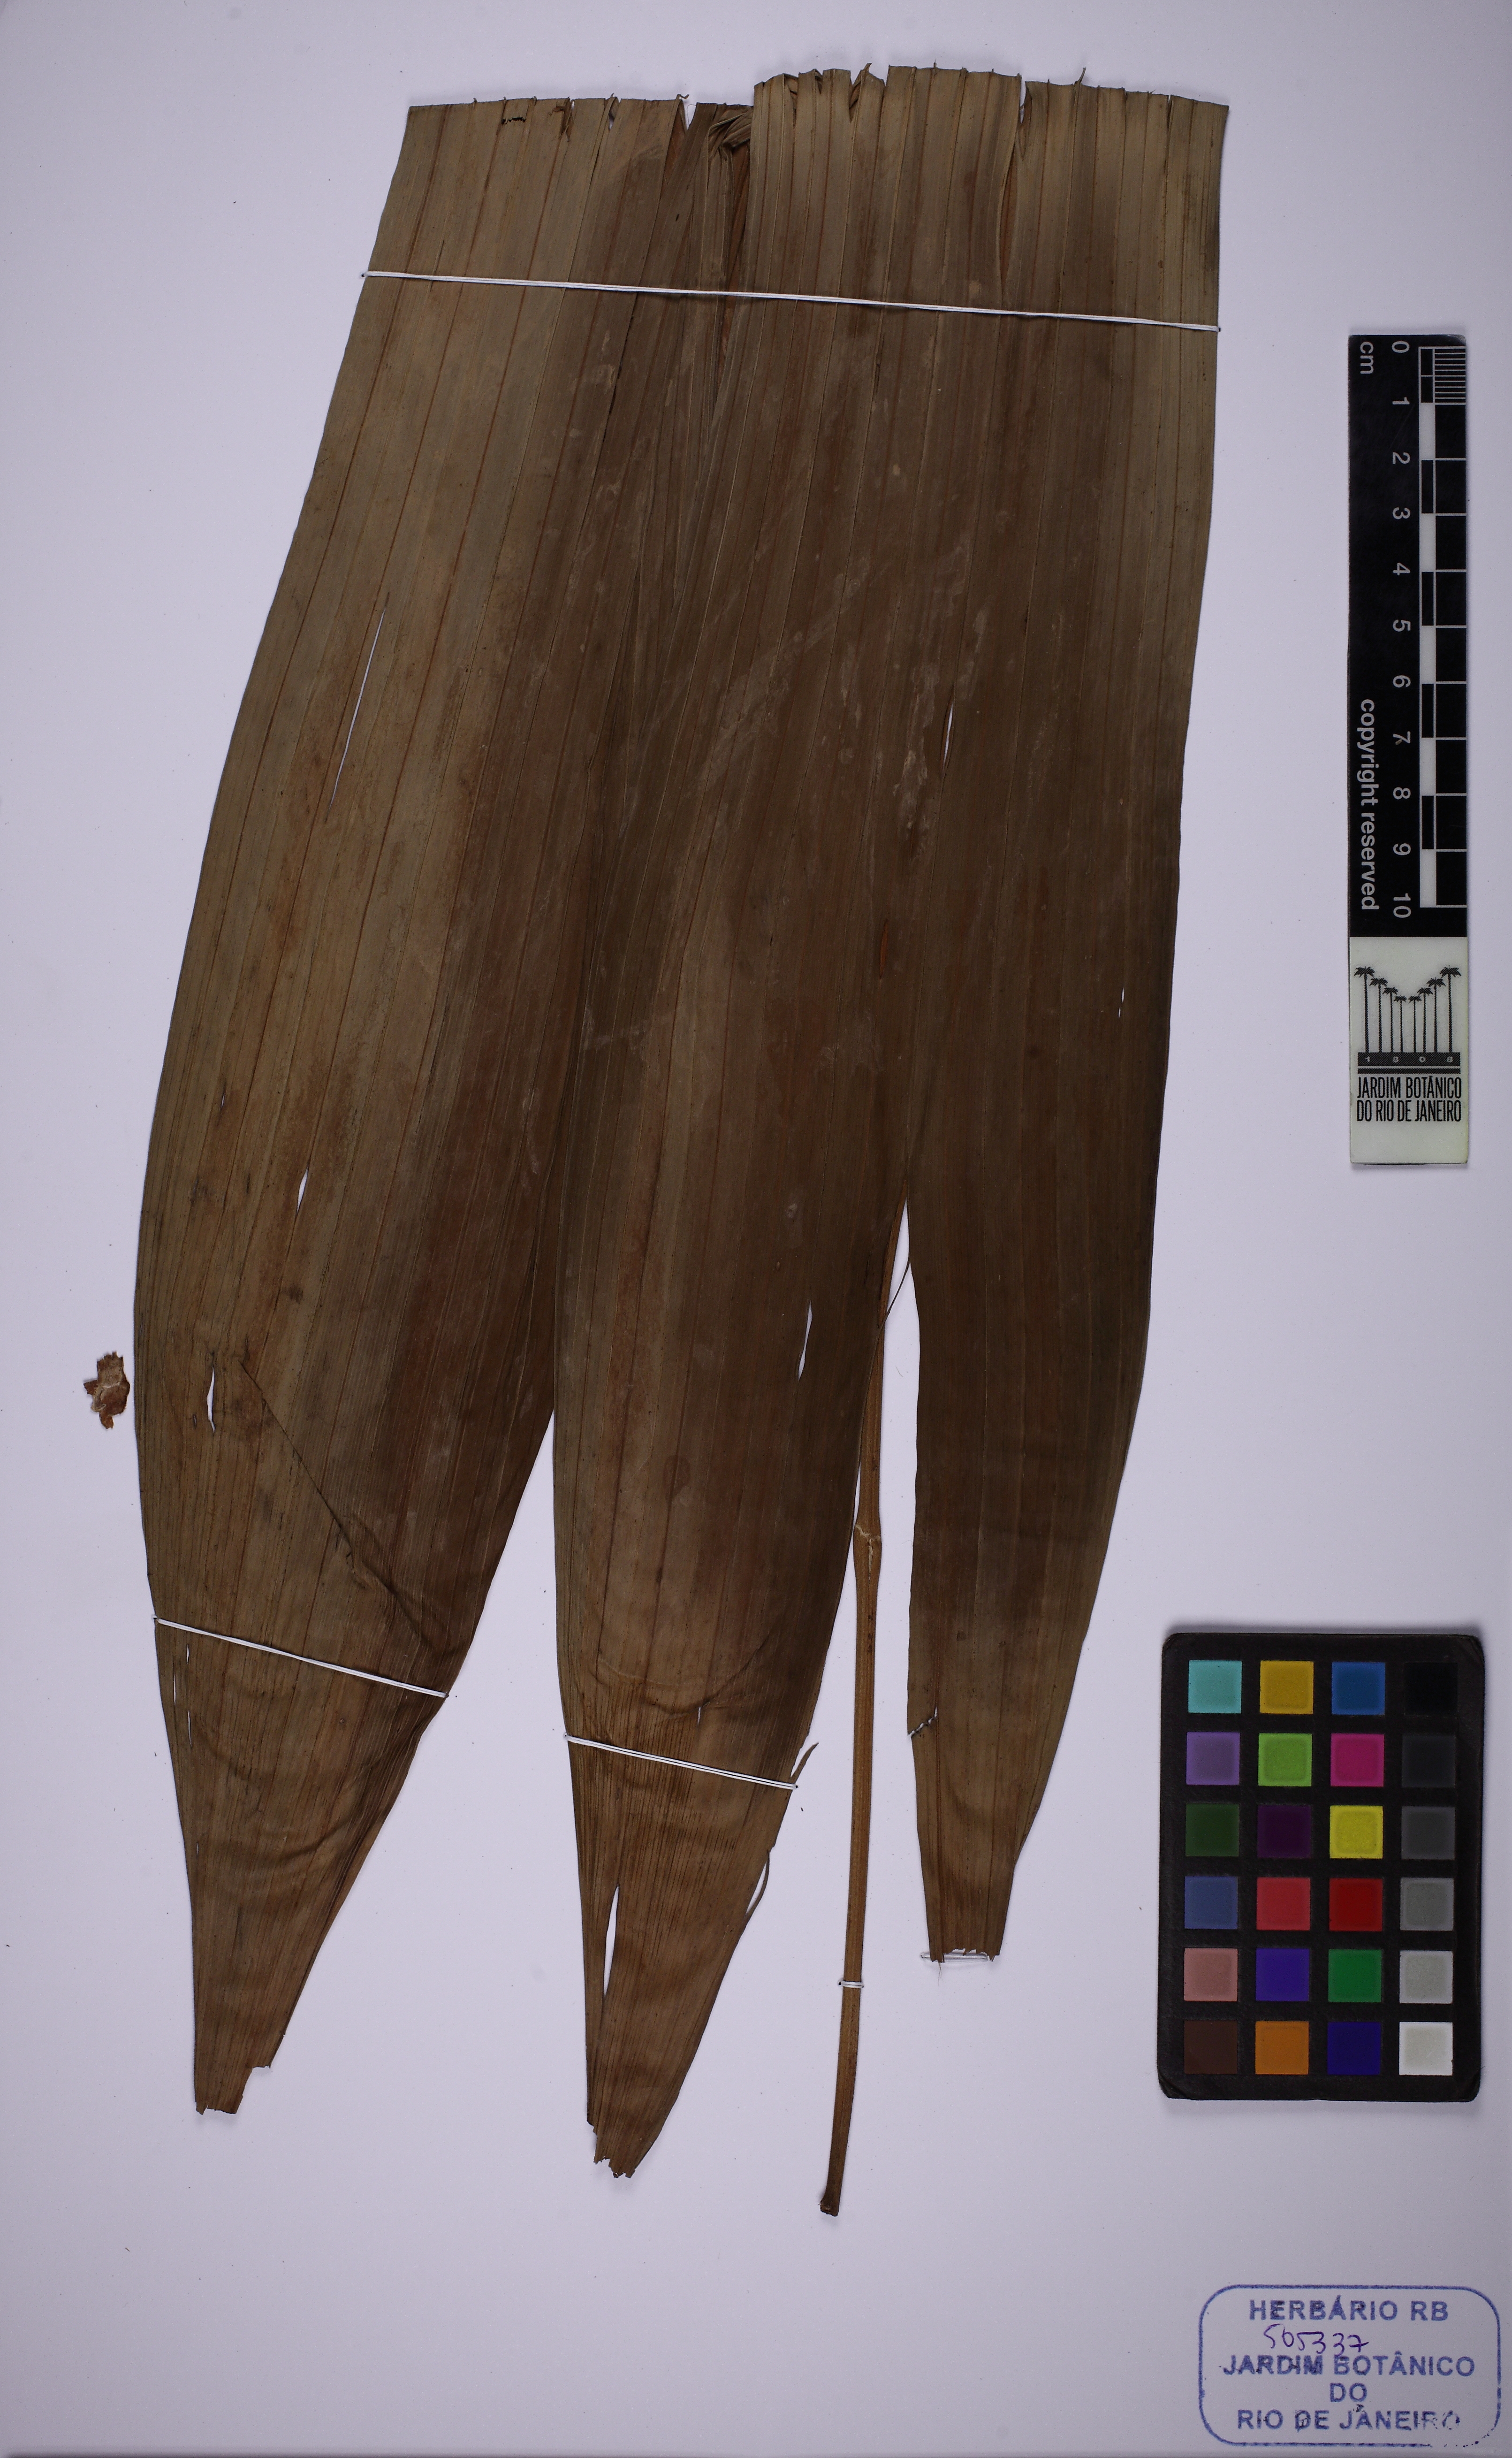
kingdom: Plantae
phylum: Tracheophyta
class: Liliopsida
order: Pandanales
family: Cyclanthaceae
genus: Asplundia
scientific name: Asplundia brachypus
